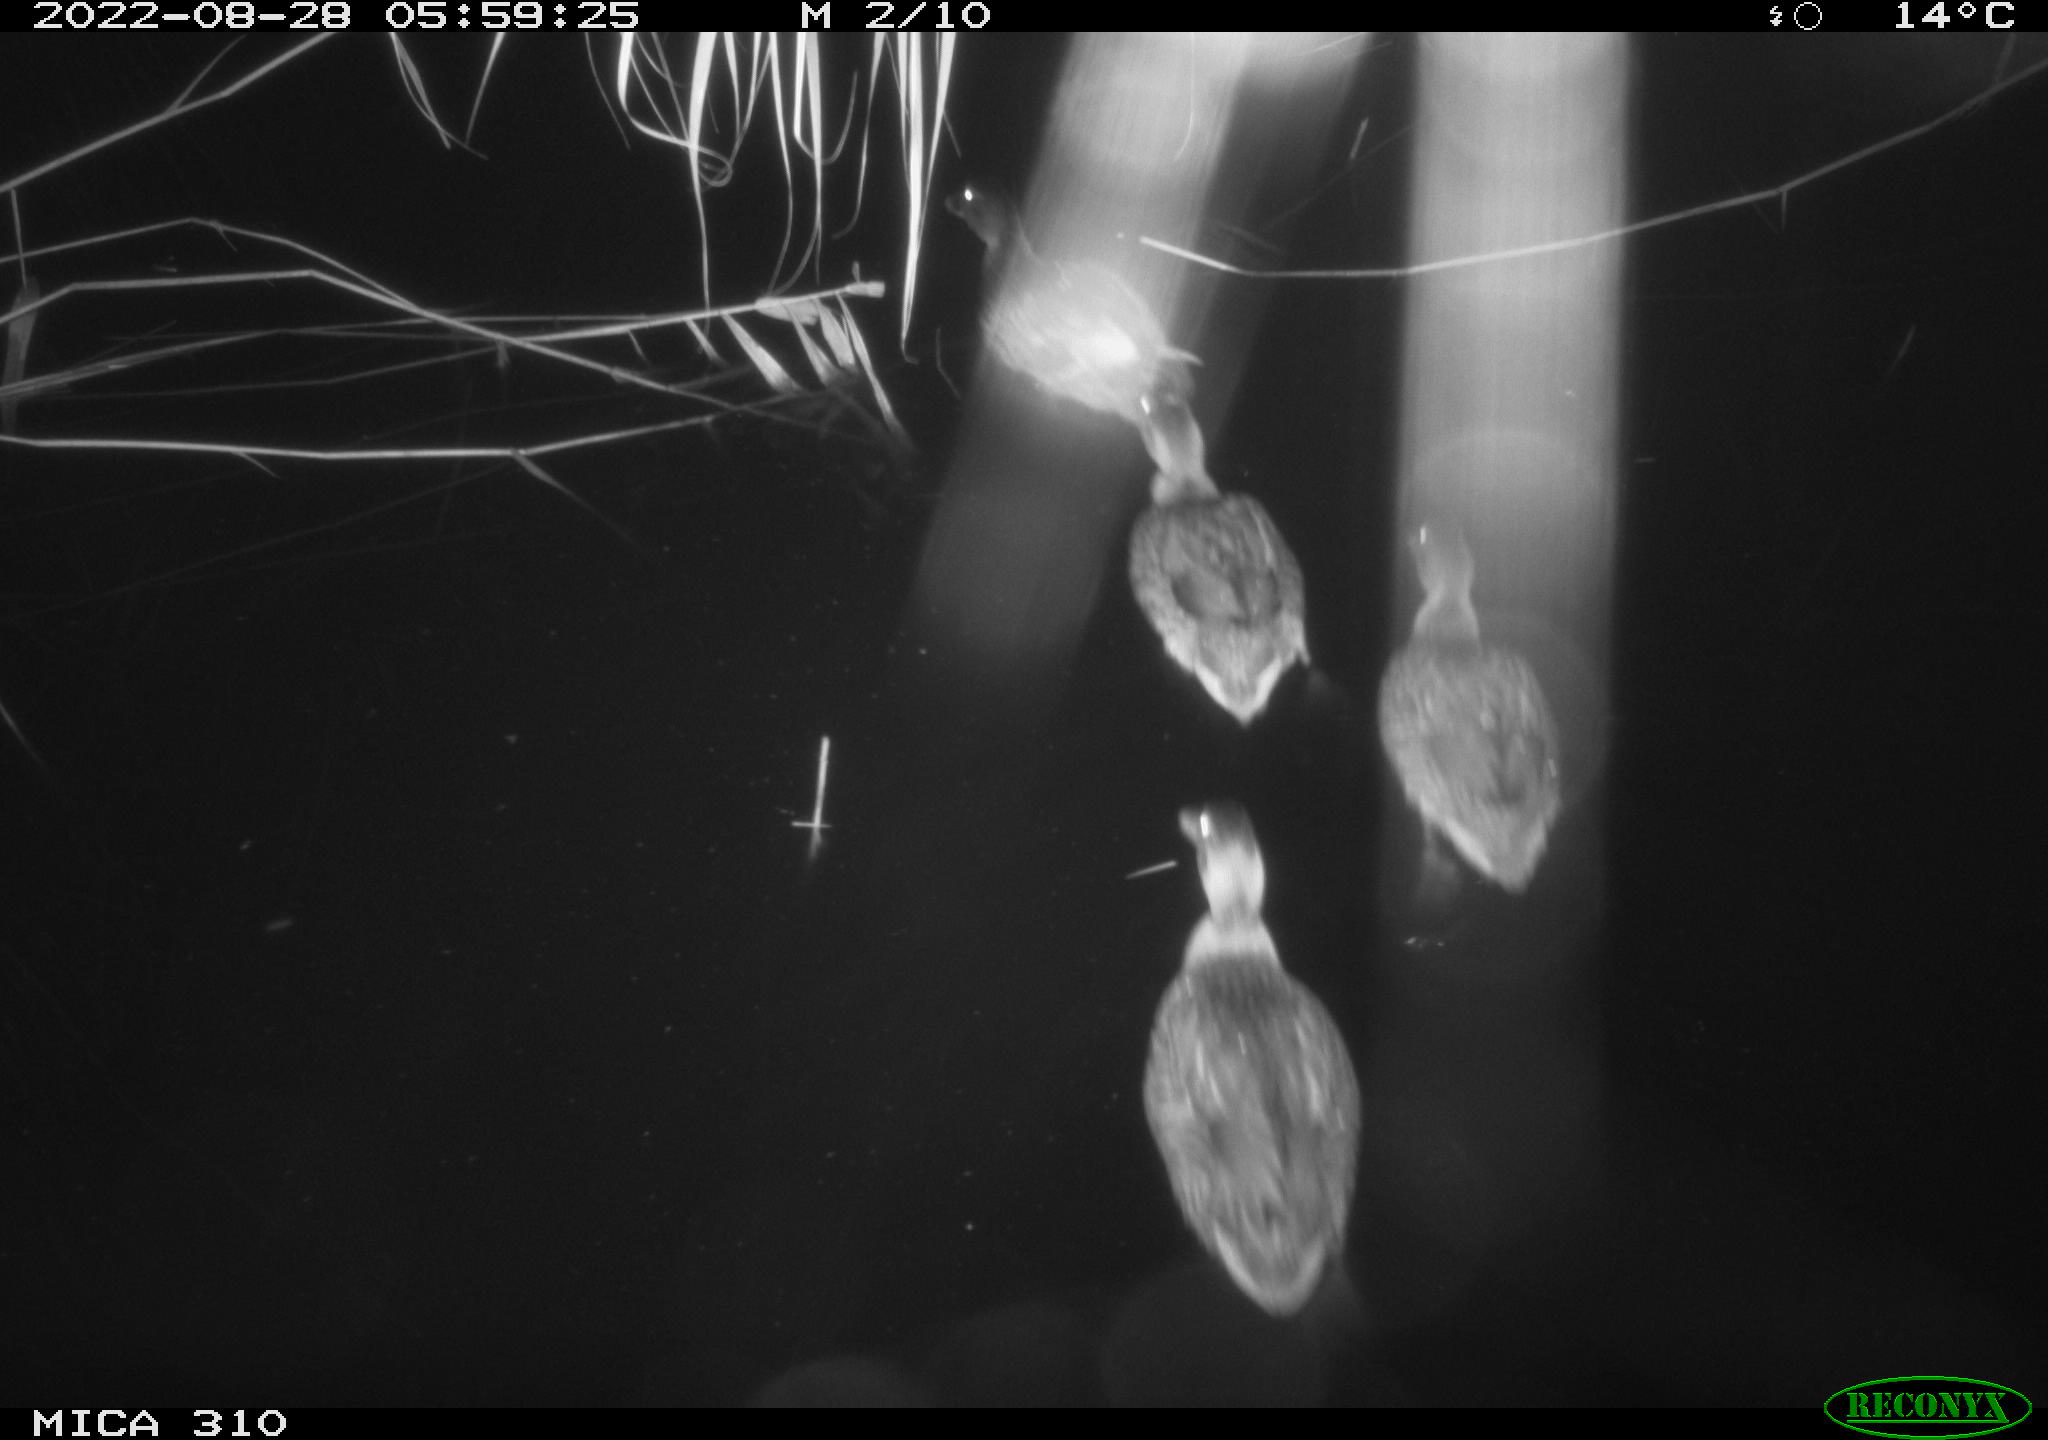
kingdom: Animalia
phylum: Chordata
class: Aves
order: Anseriformes
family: Anatidae
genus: Anas
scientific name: Anas platyrhynchos
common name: Mallard
